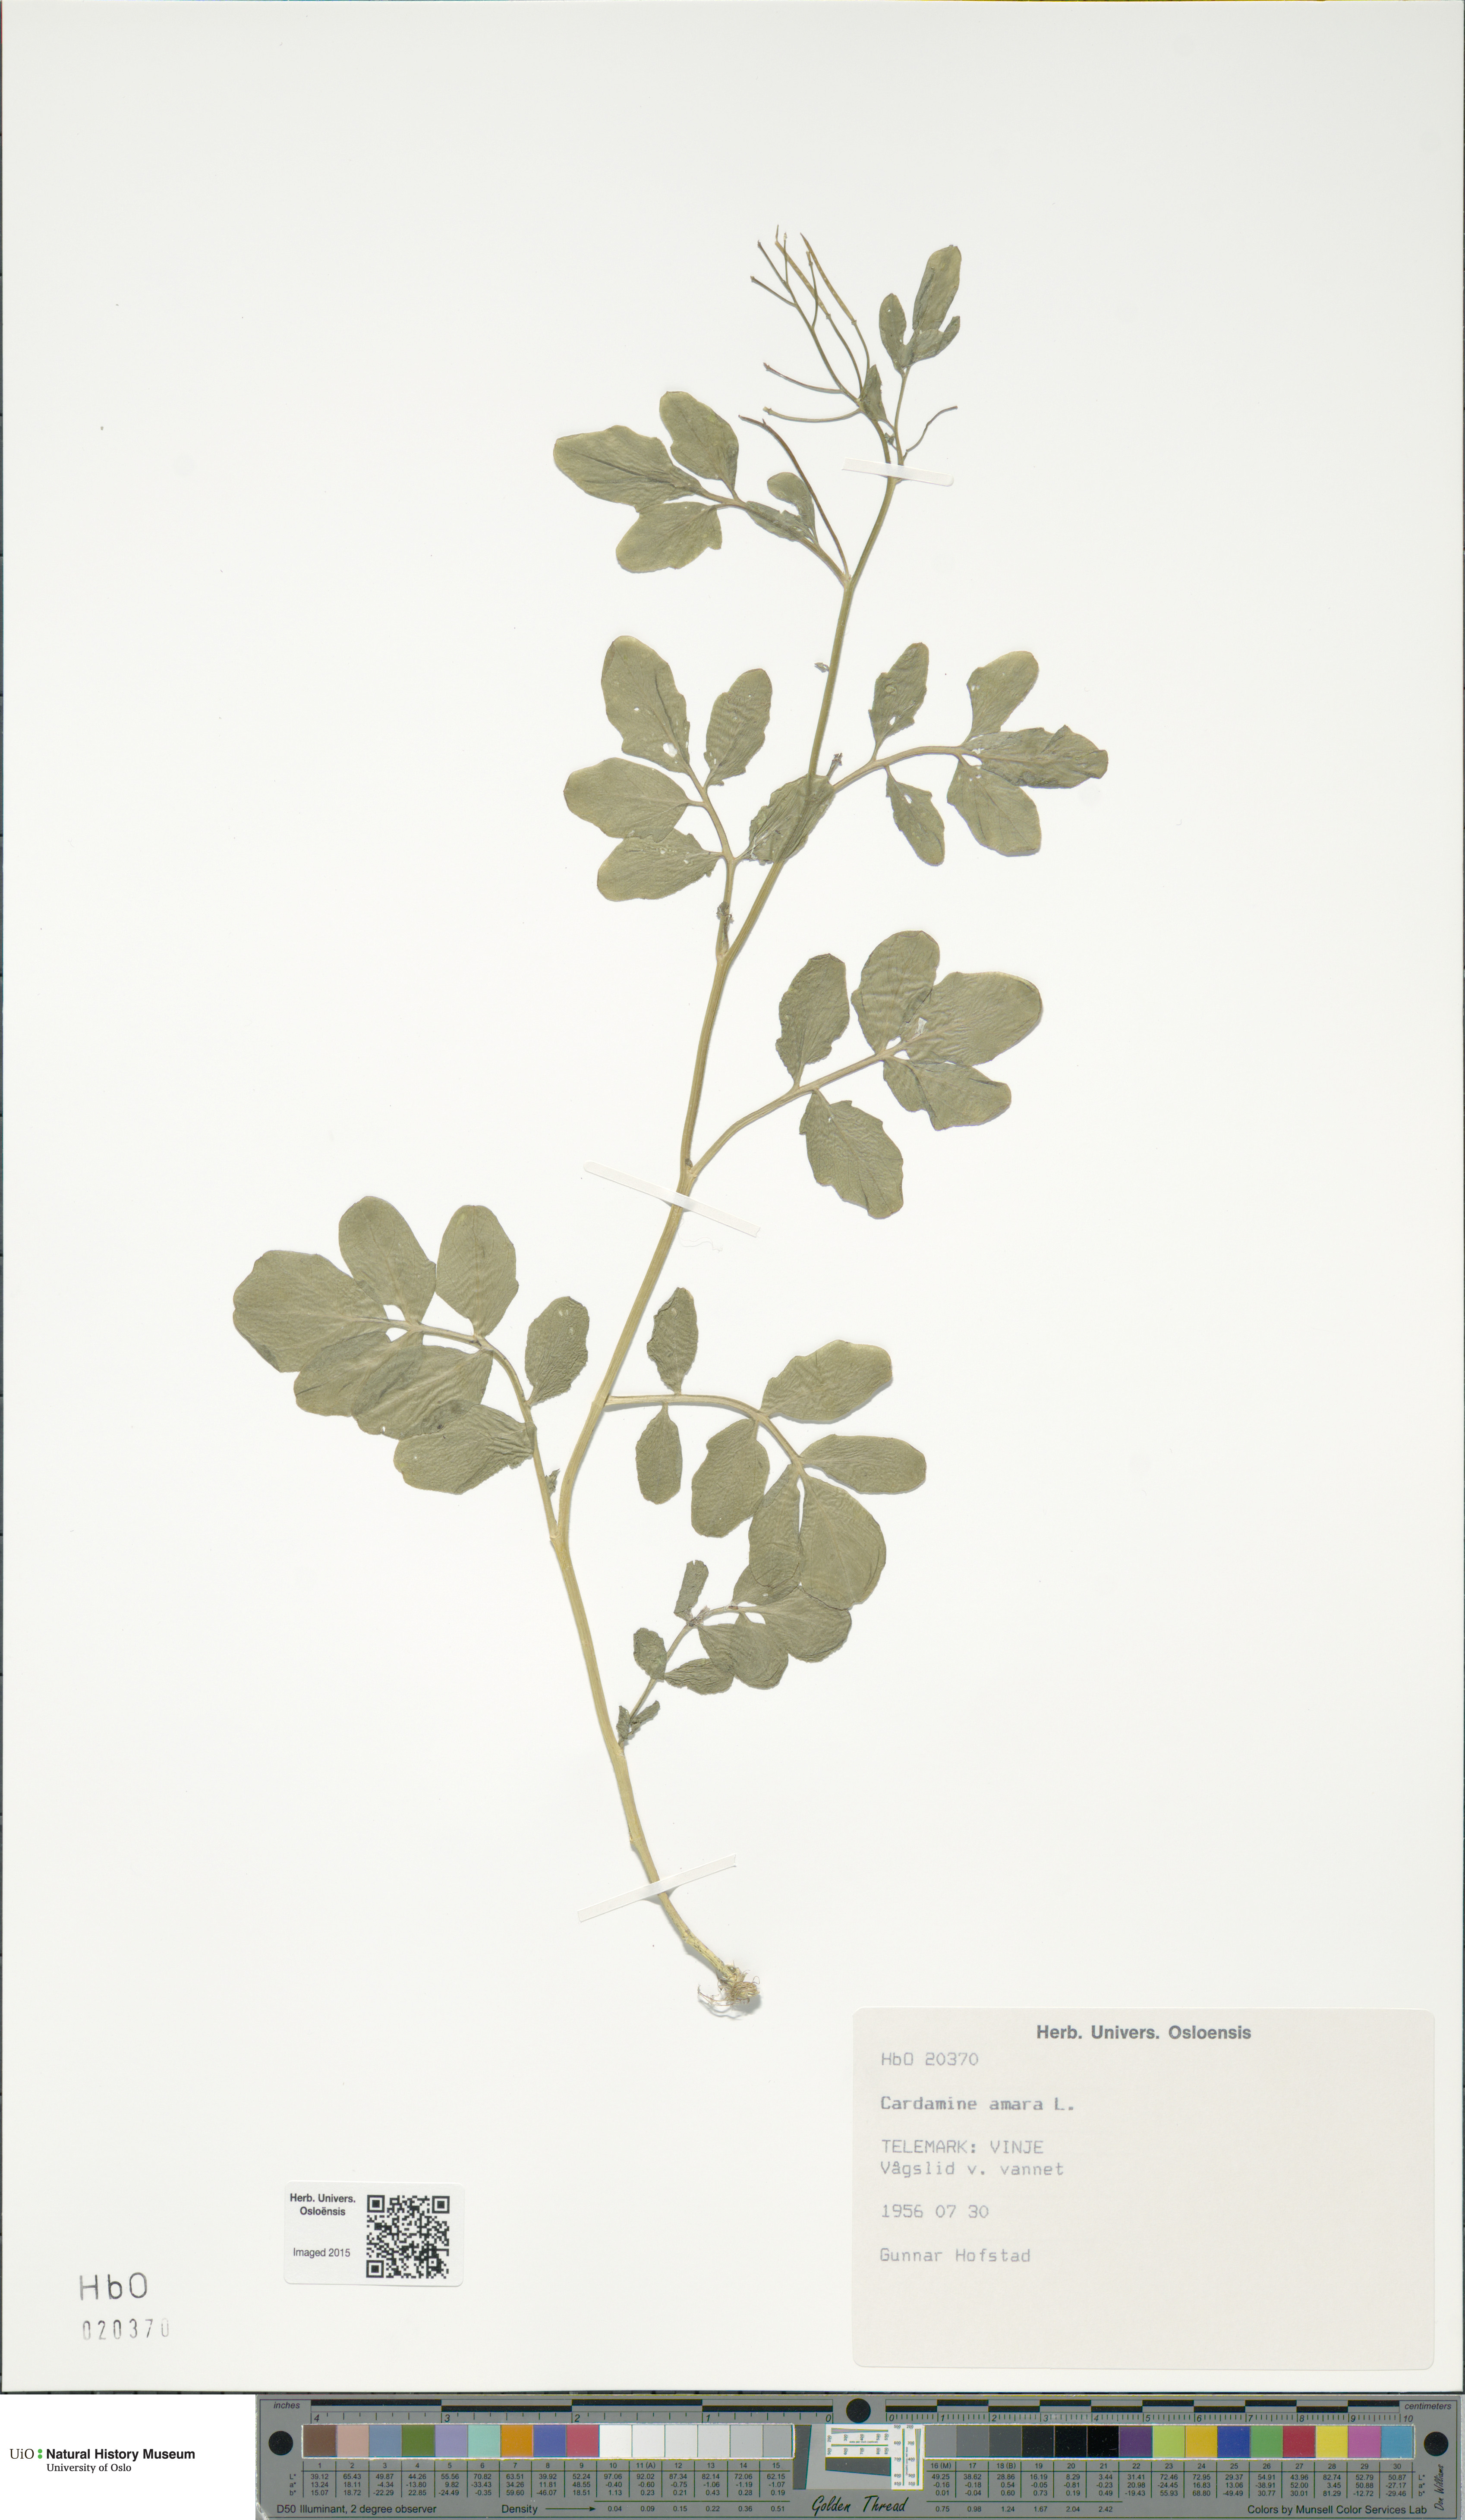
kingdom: Plantae
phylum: Tracheophyta
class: Magnoliopsida
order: Brassicales
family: Brassicaceae
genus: Cardamine
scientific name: Cardamine amara
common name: Large bitter-cress
